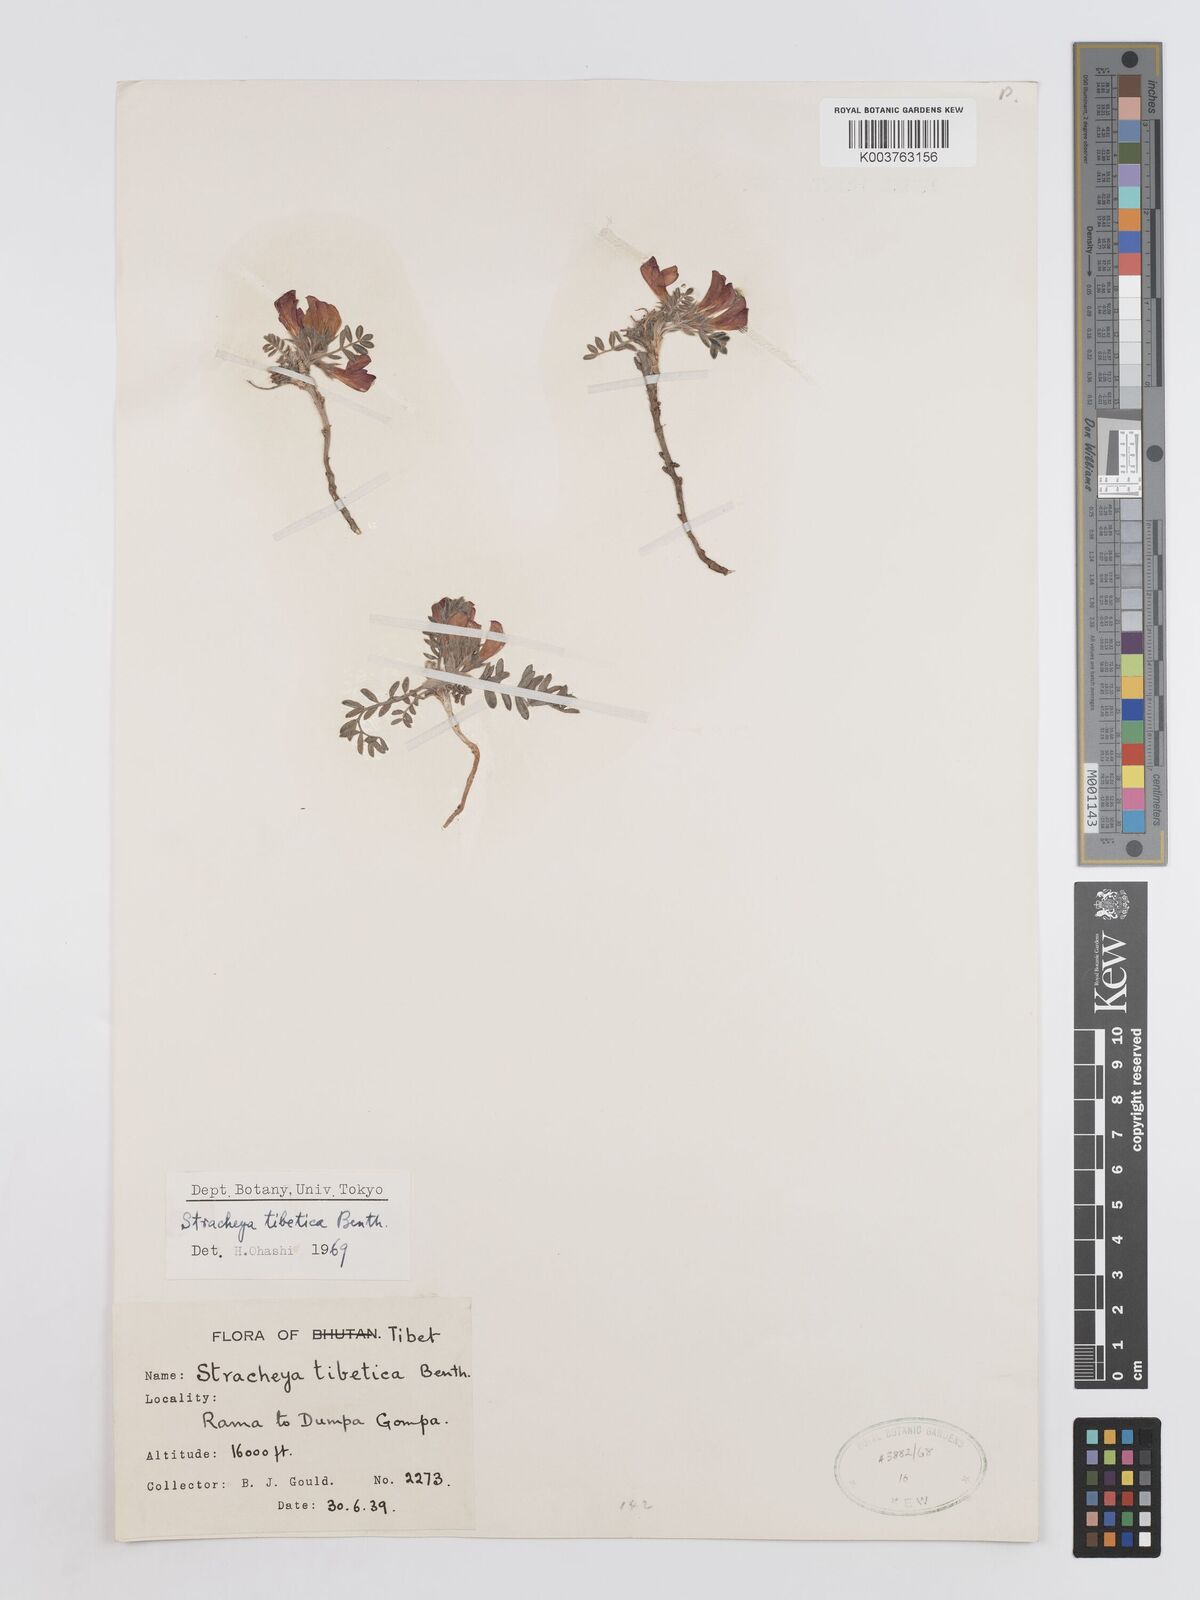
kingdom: Plantae
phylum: Tracheophyta
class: Magnoliopsida
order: Fabales
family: Fabaceae
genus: Hedysarum
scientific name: Hedysarum tibeticum
